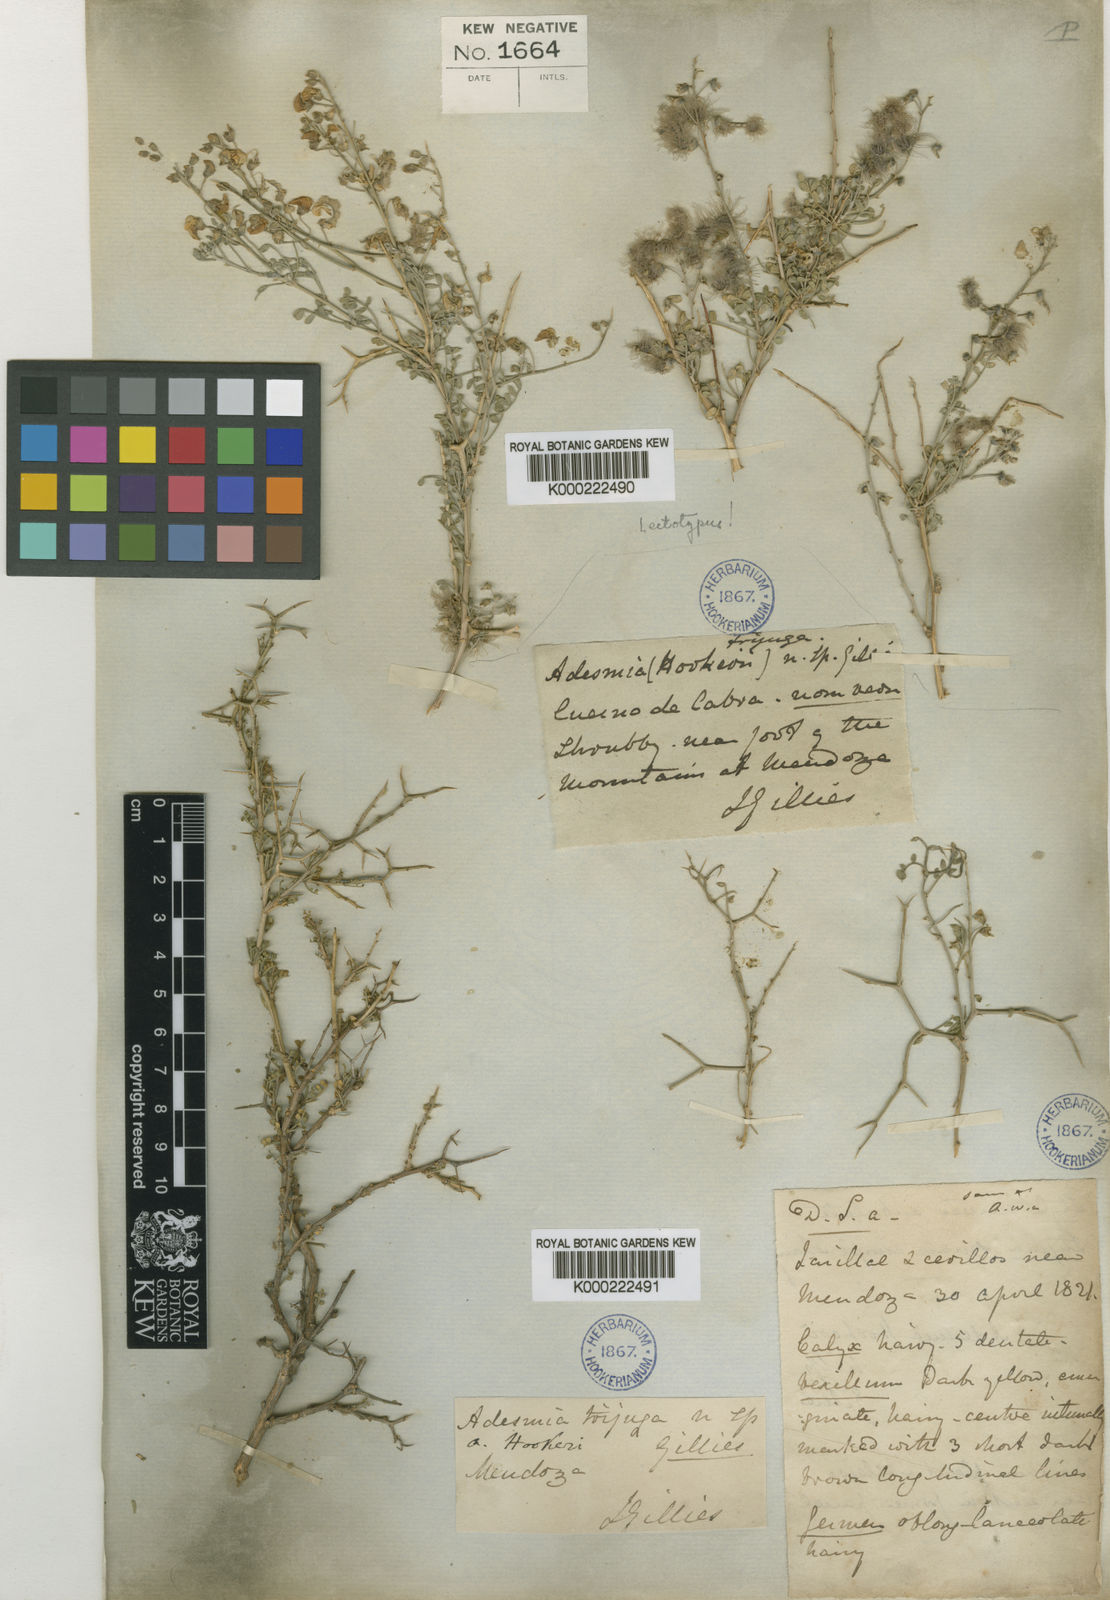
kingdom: Plantae
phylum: Tracheophyta
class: Magnoliopsida
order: Fabales
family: Fabaceae
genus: Adesmia
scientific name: Adesmia trijuga
